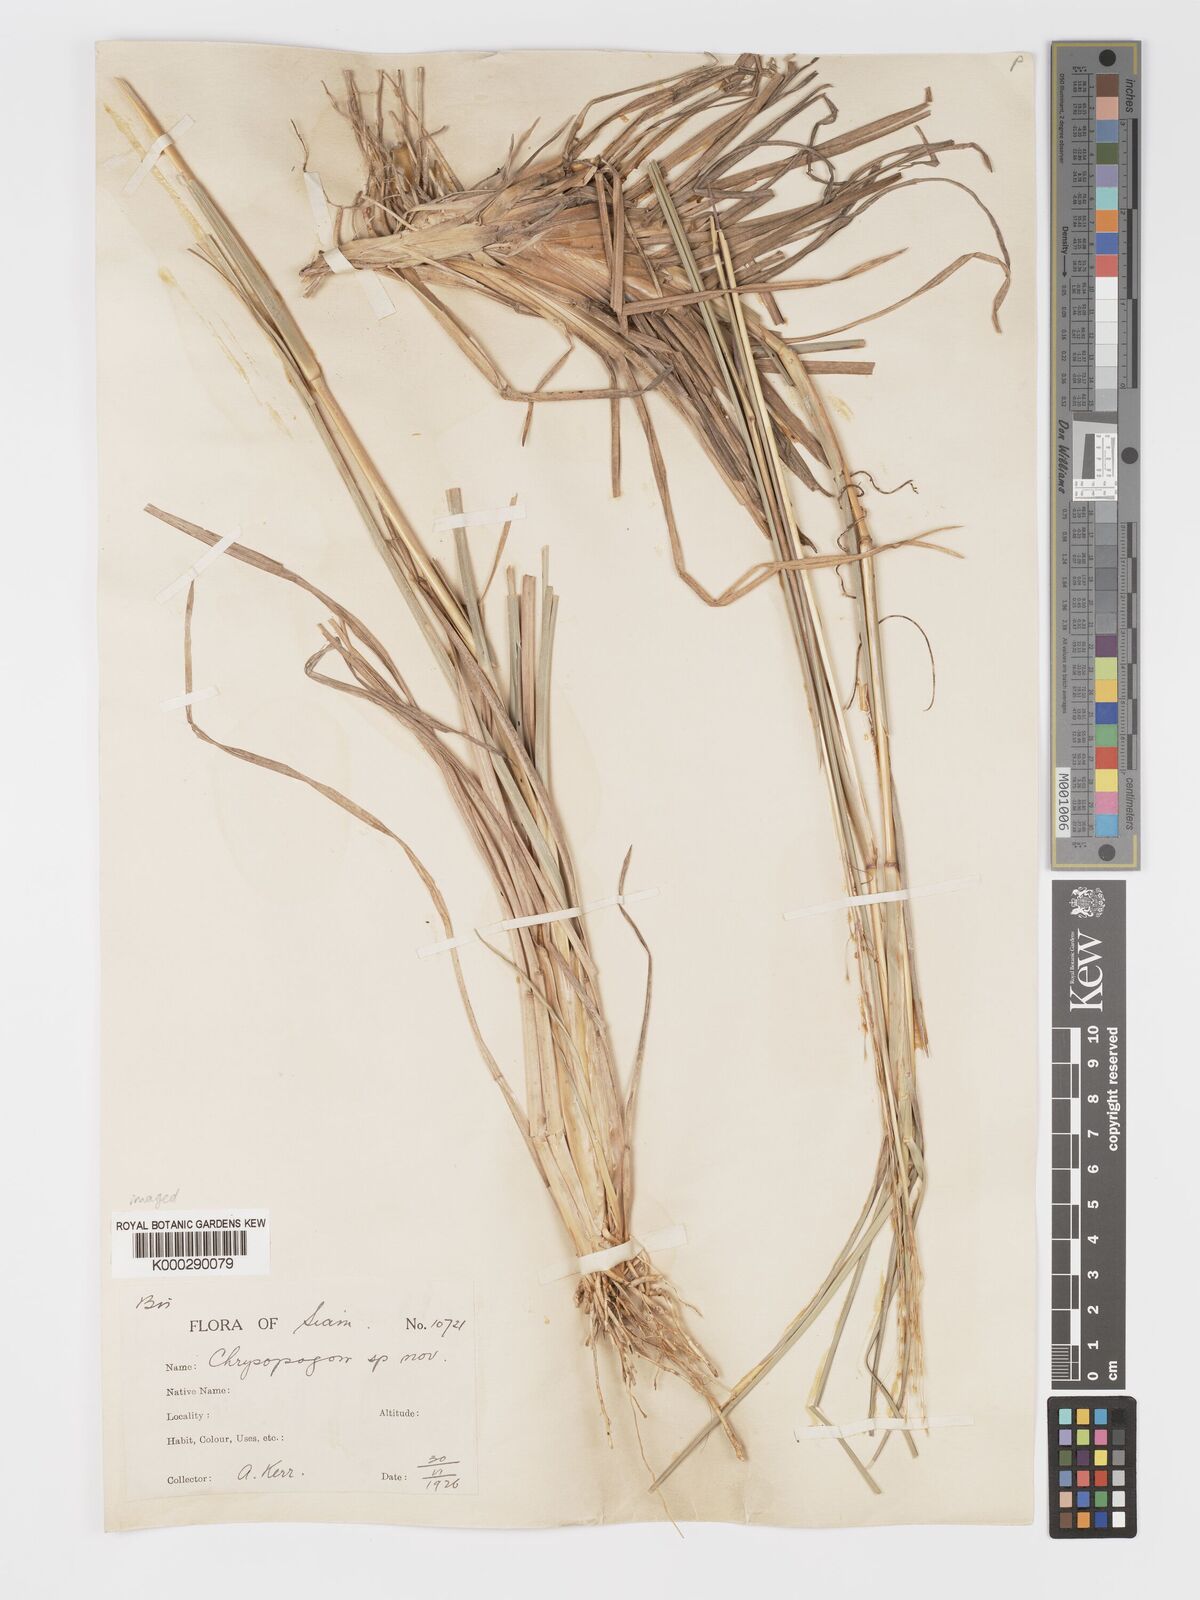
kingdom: Plantae
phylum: Tracheophyta
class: Liliopsida
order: Poales
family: Poaceae
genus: Chrysopogon
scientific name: Chrysopogon orientalis
